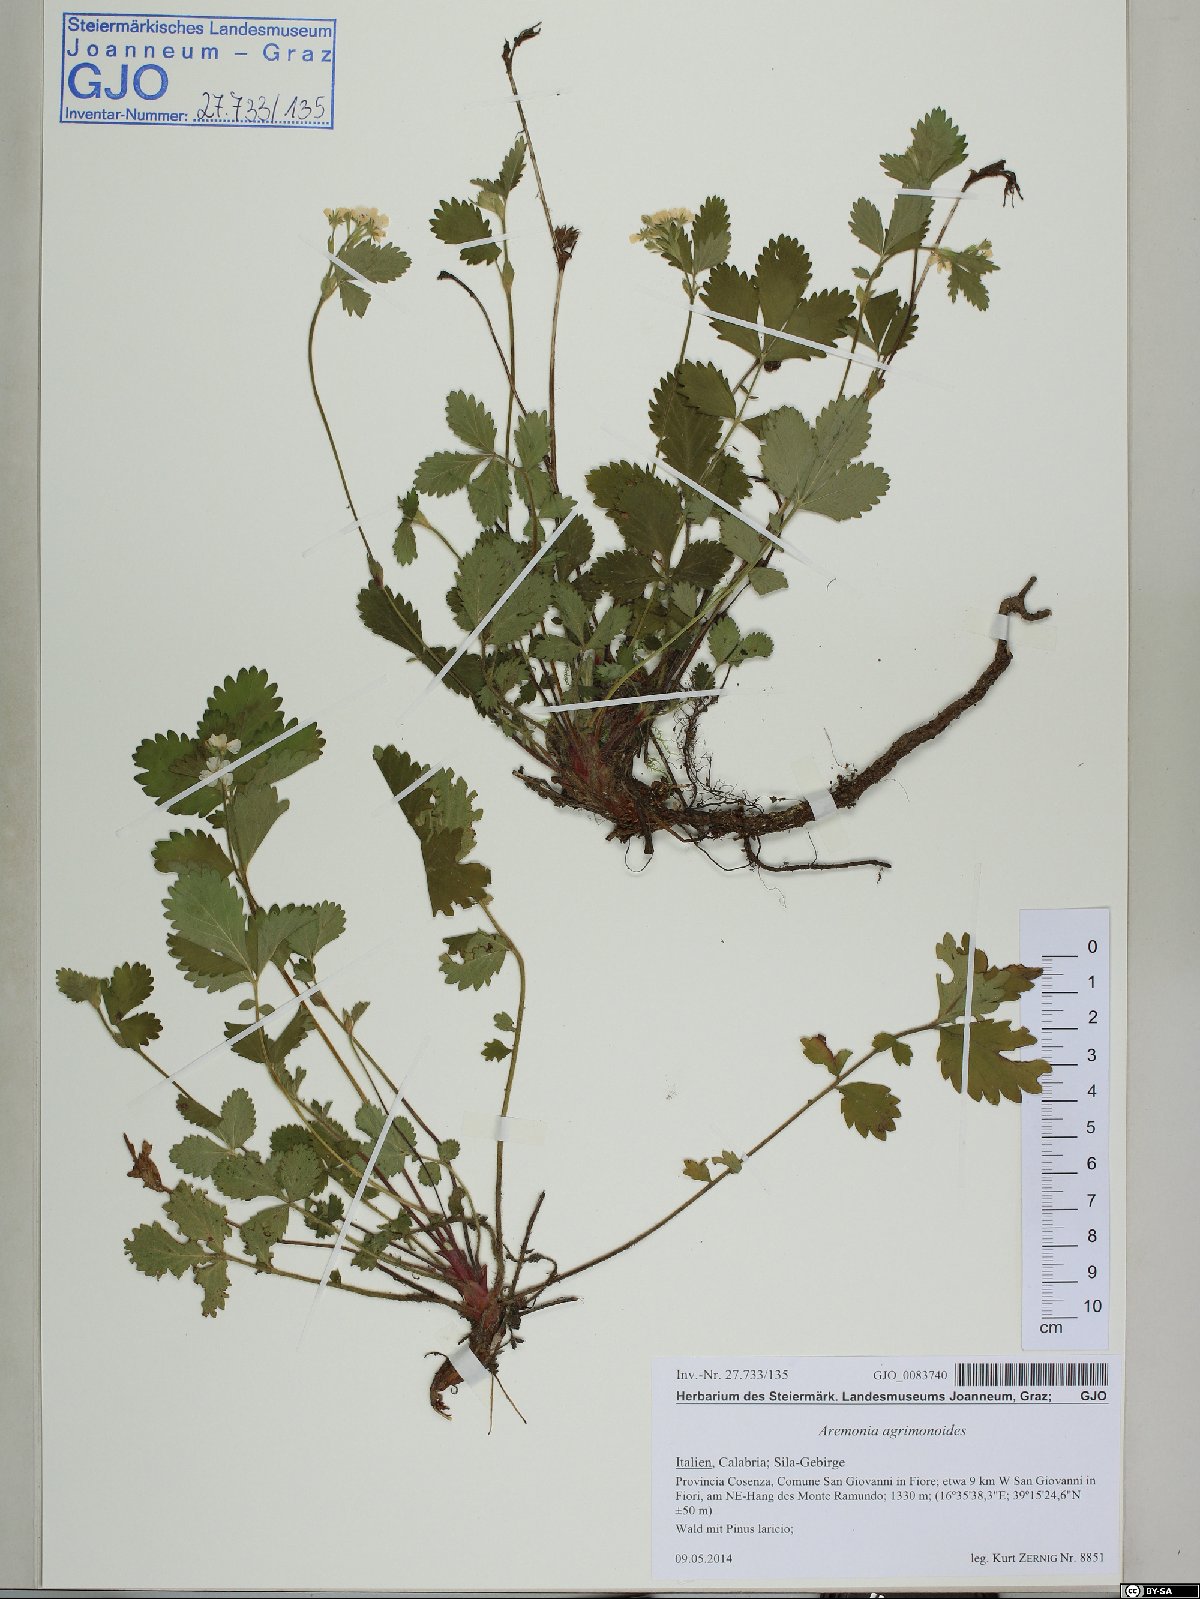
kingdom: Plantae
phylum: Tracheophyta
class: Magnoliopsida
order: Rosales
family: Rosaceae
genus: Aremonia
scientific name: Aremonia agrimonoides
